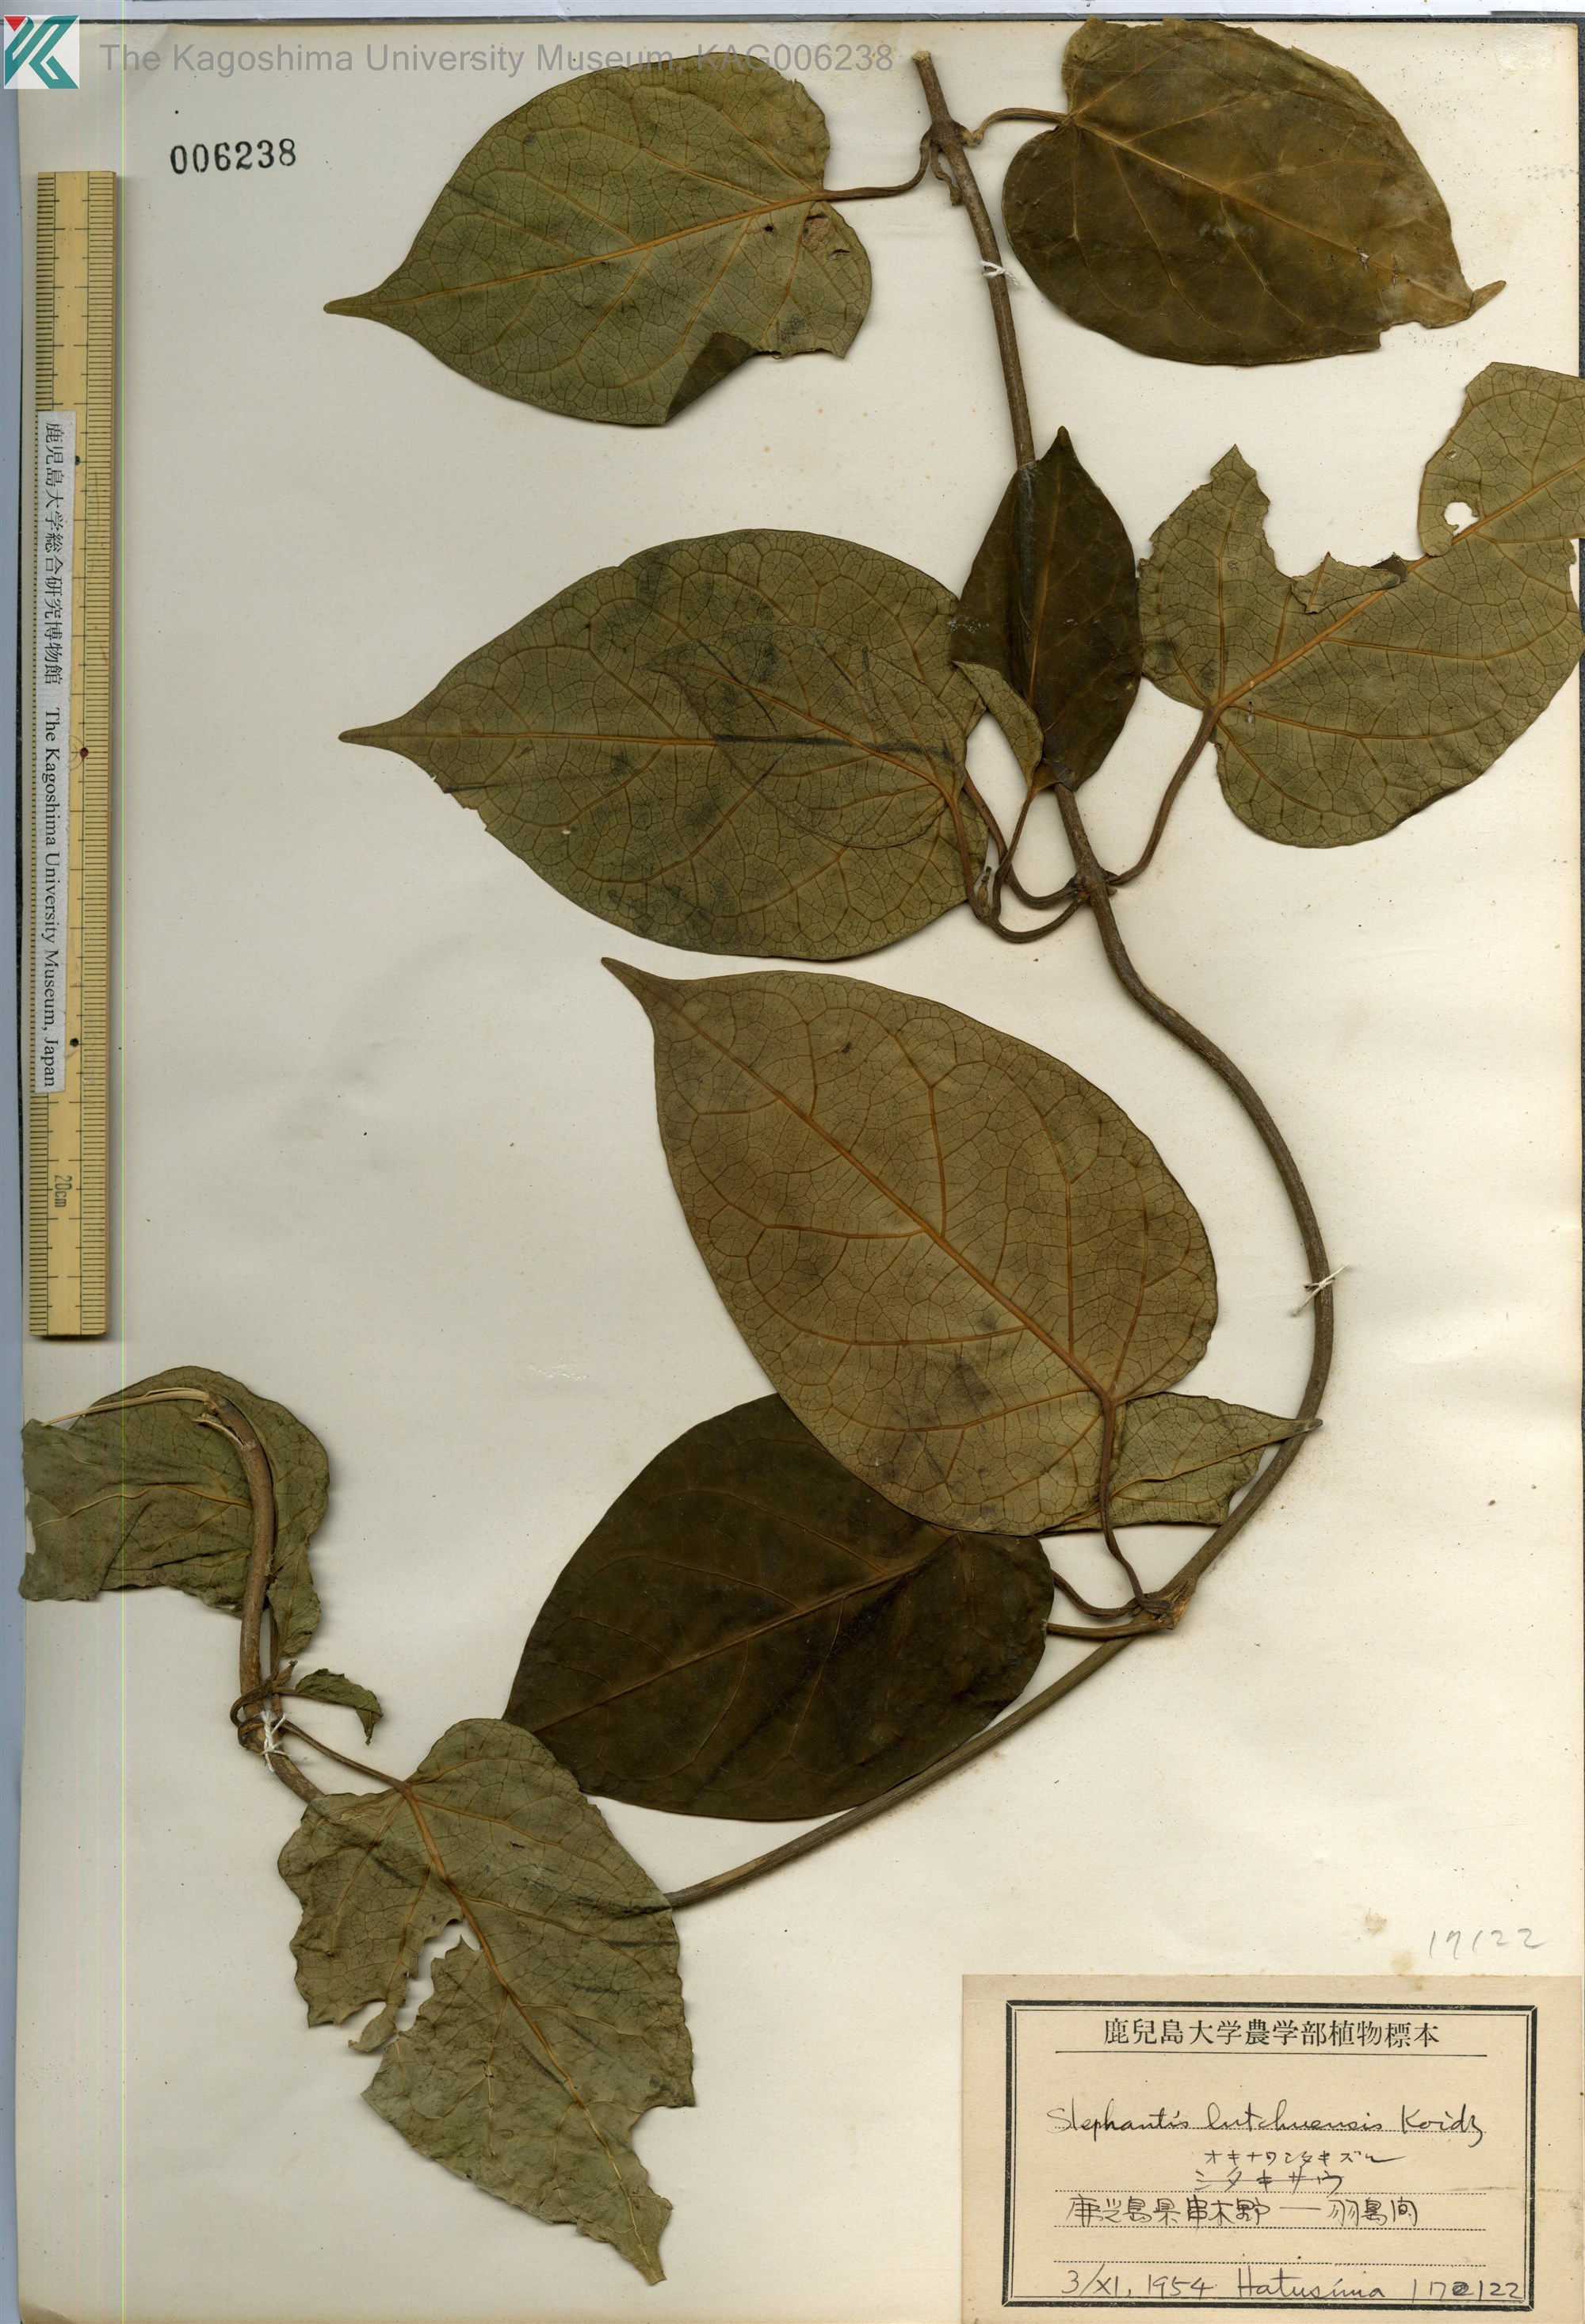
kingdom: Plantae
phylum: Tracheophyta
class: Magnoliopsida
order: Gentianales
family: Apocynaceae
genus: Jasminanthes
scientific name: Jasminanthes mucronata
